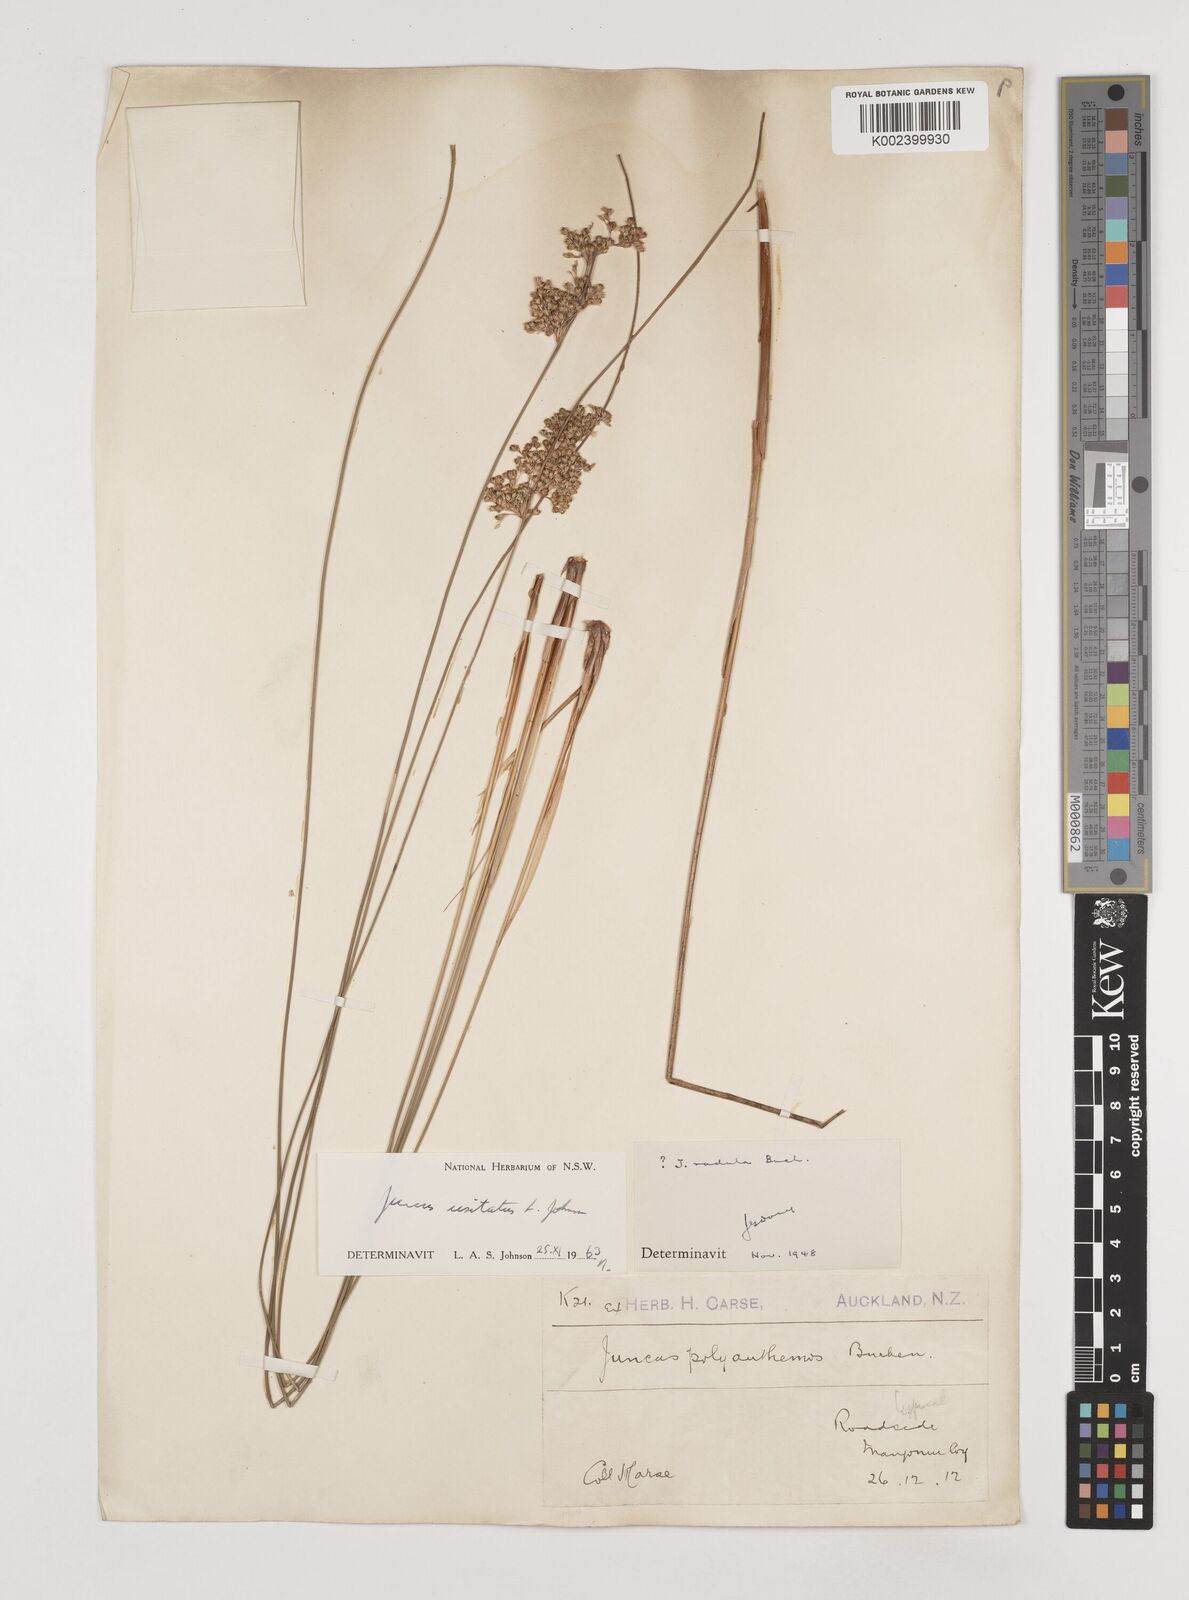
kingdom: Plantae
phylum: Tracheophyta
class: Liliopsida
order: Poales
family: Juncaceae
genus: Juncus
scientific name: Juncus usitatus
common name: Rush
